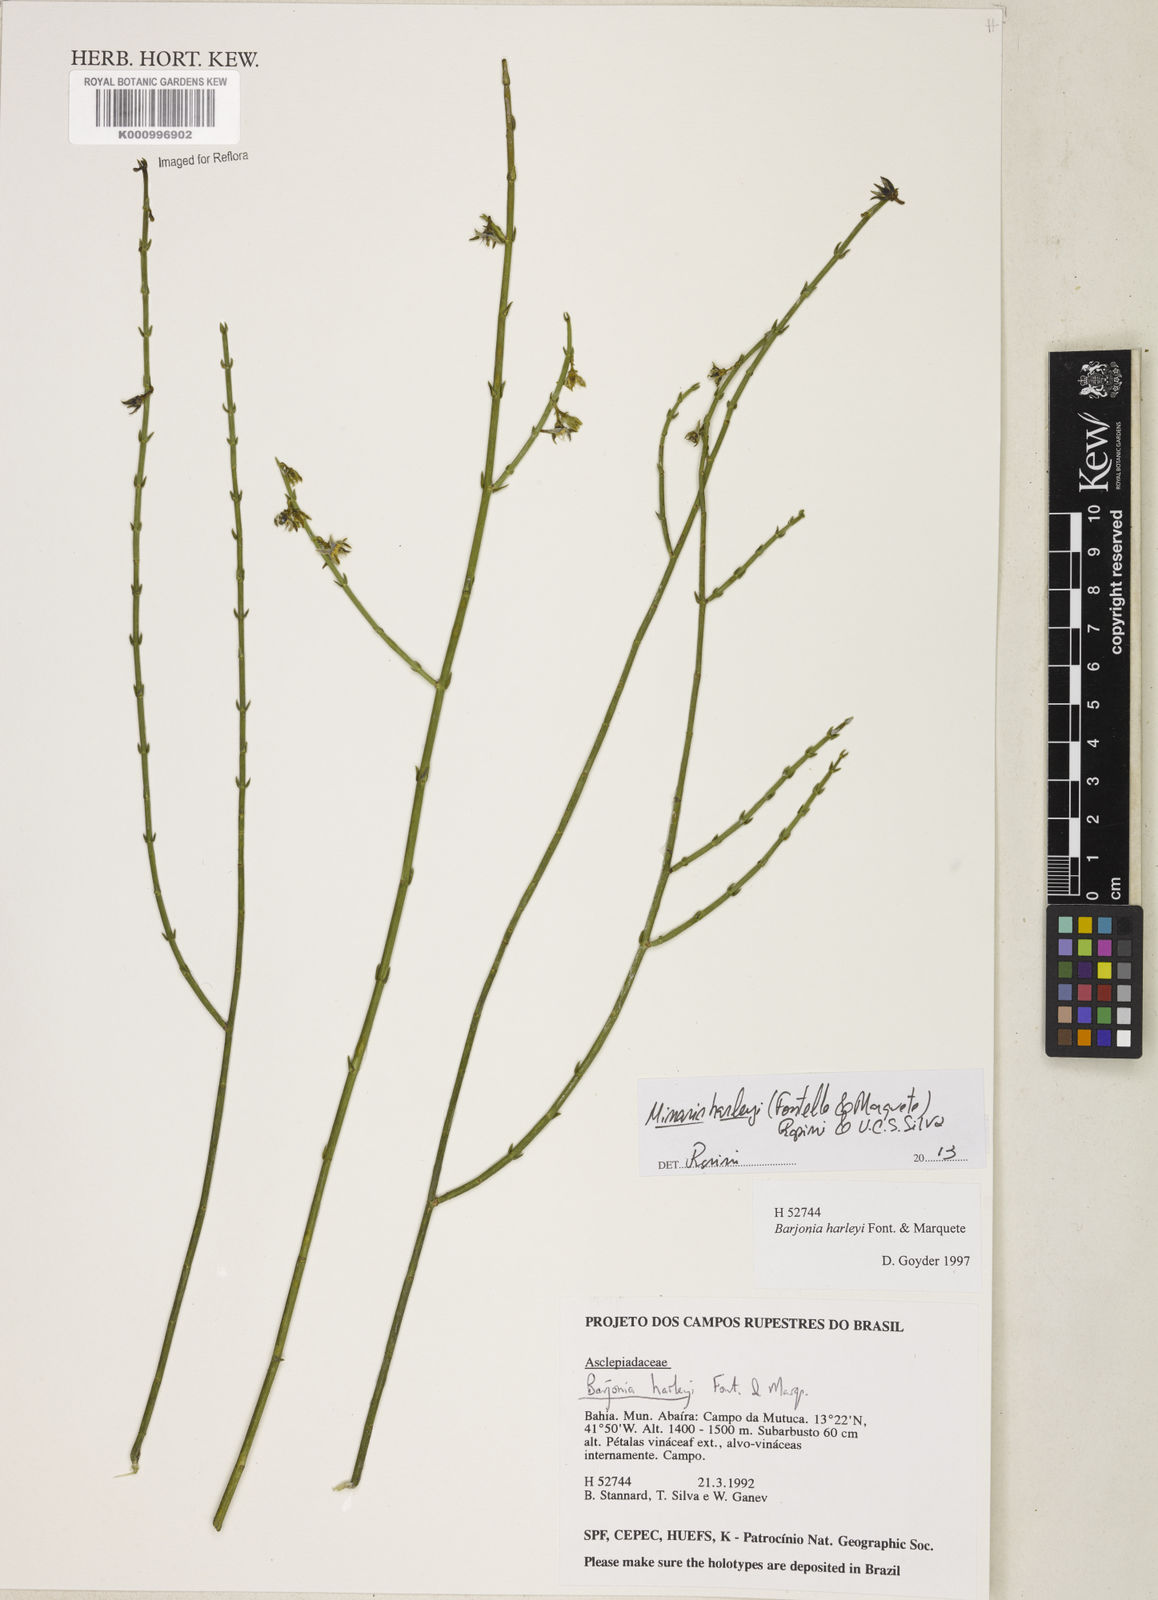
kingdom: Plantae
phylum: Tracheophyta
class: Magnoliopsida
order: Gentianales
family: Apocynaceae
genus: Minaria
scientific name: Minaria cordata
